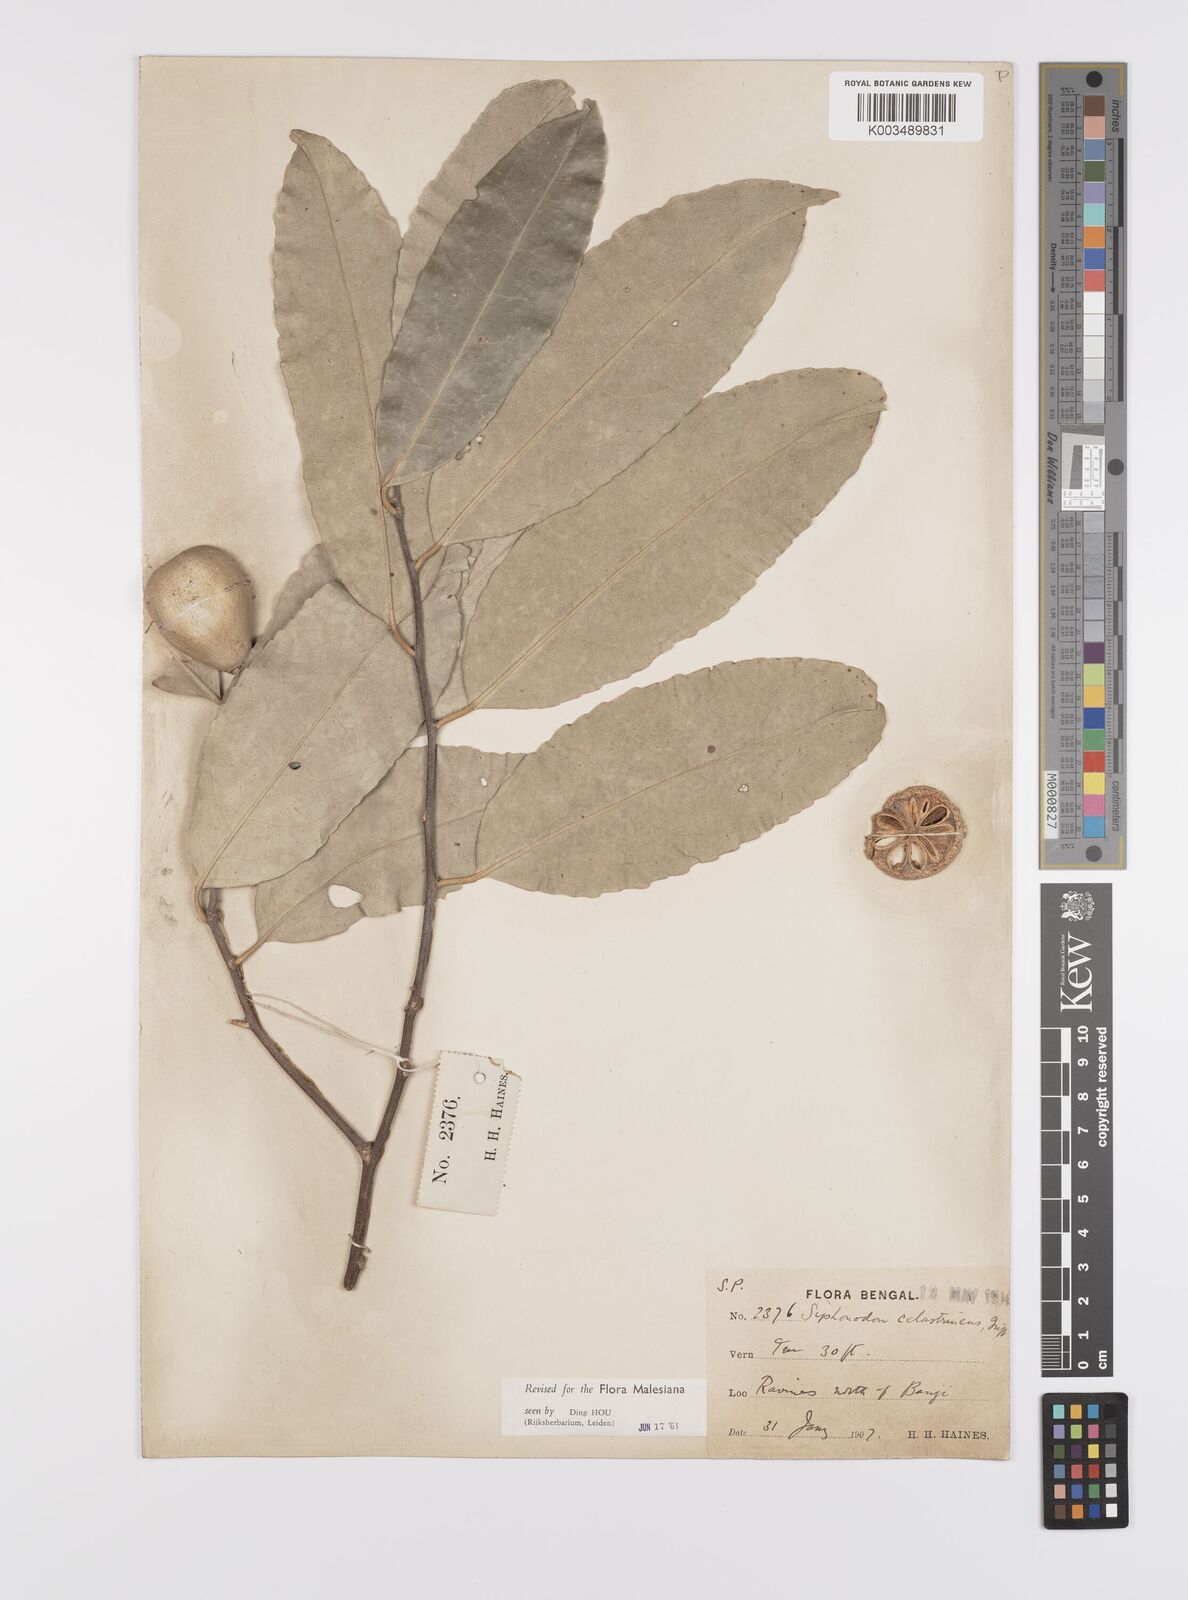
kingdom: Plantae
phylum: Tracheophyta
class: Magnoliopsida
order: Celastrales
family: Celastraceae
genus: Siphonodon
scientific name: Siphonodon celastrineus
